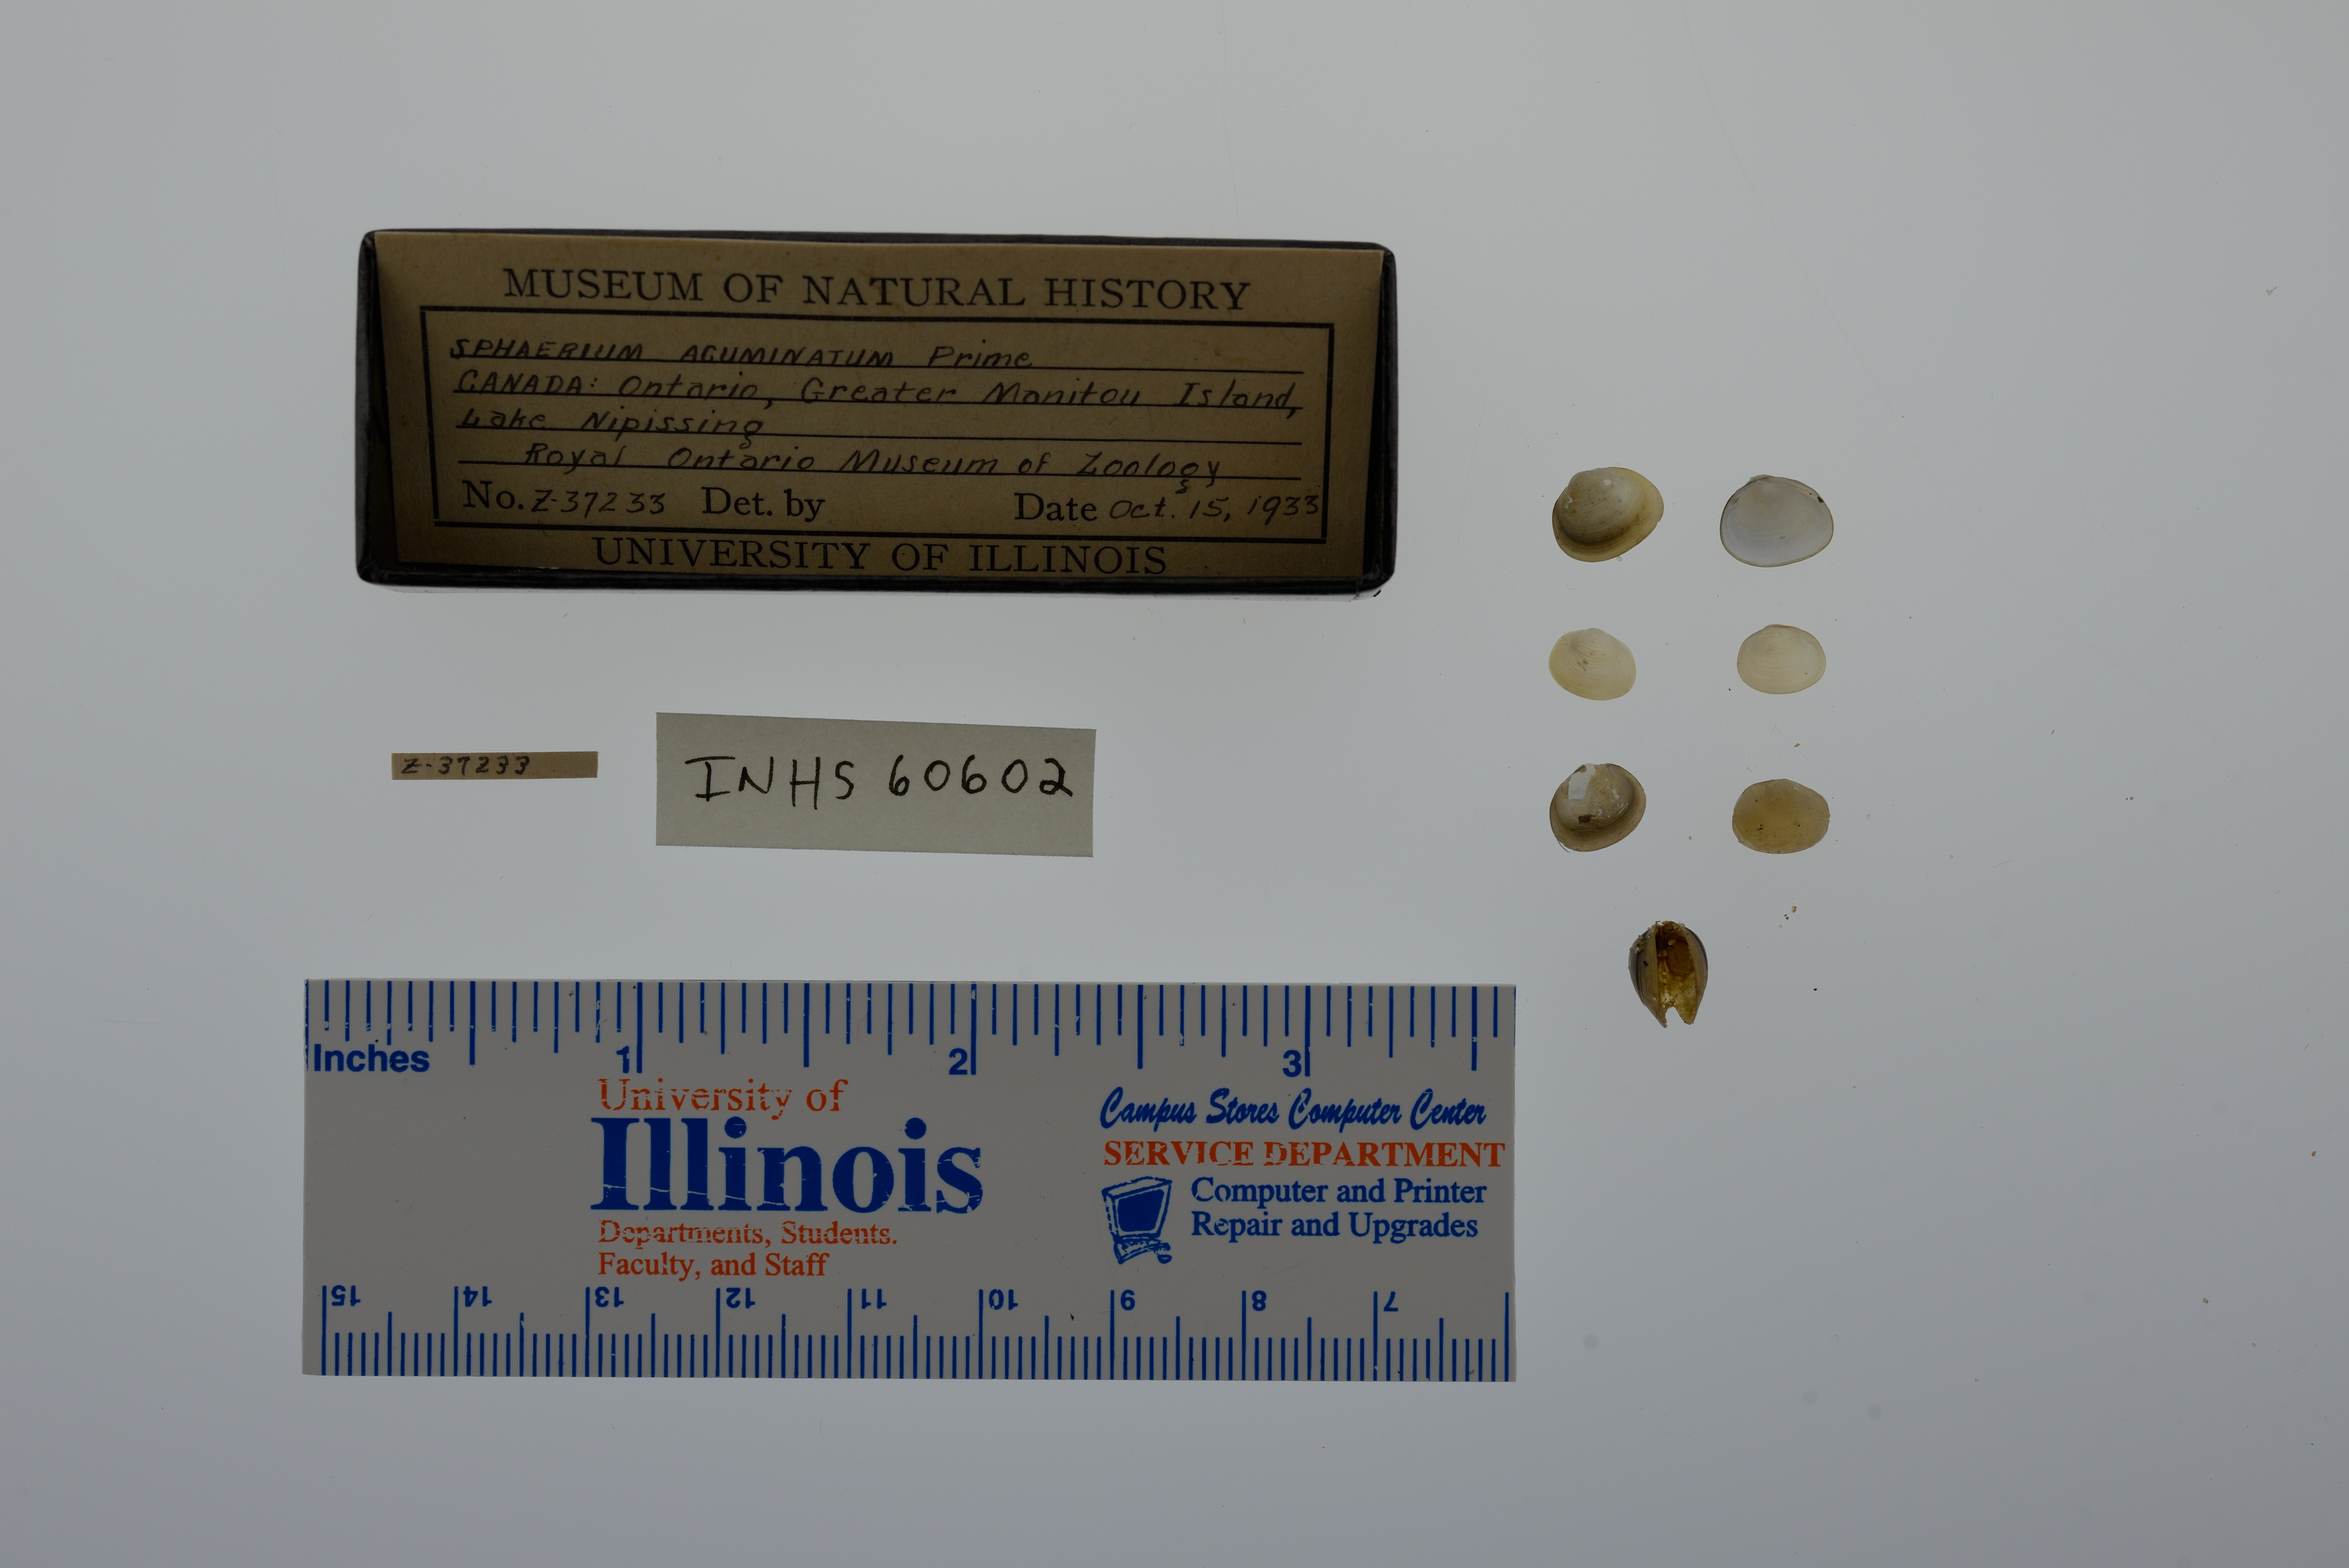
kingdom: Animalia
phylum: Mollusca
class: Bivalvia
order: Sphaeriida
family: Sphaeriidae
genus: Sphaerium
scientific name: Sphaerium striatinum
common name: Striated fingernailclam
